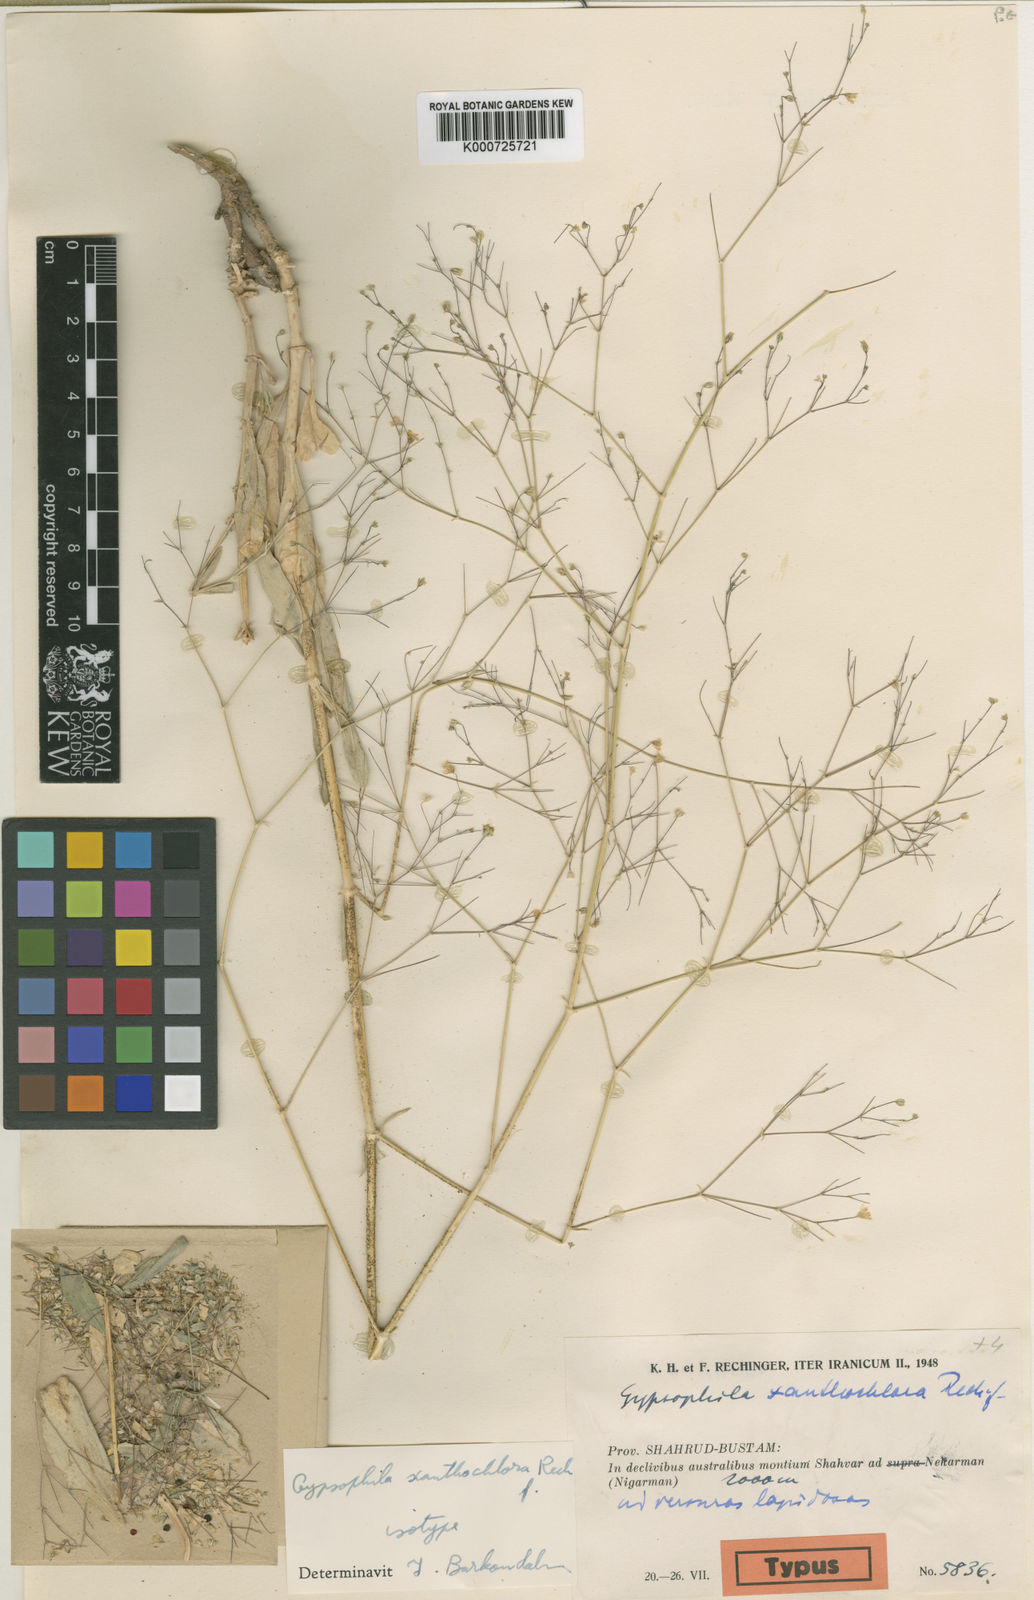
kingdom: Plantae
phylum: Tracheophyta
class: Magnoliopsida
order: Caryophyllales
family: Caryophyllaceae
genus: Gypsophila
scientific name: Gypsophila xanthochlora
